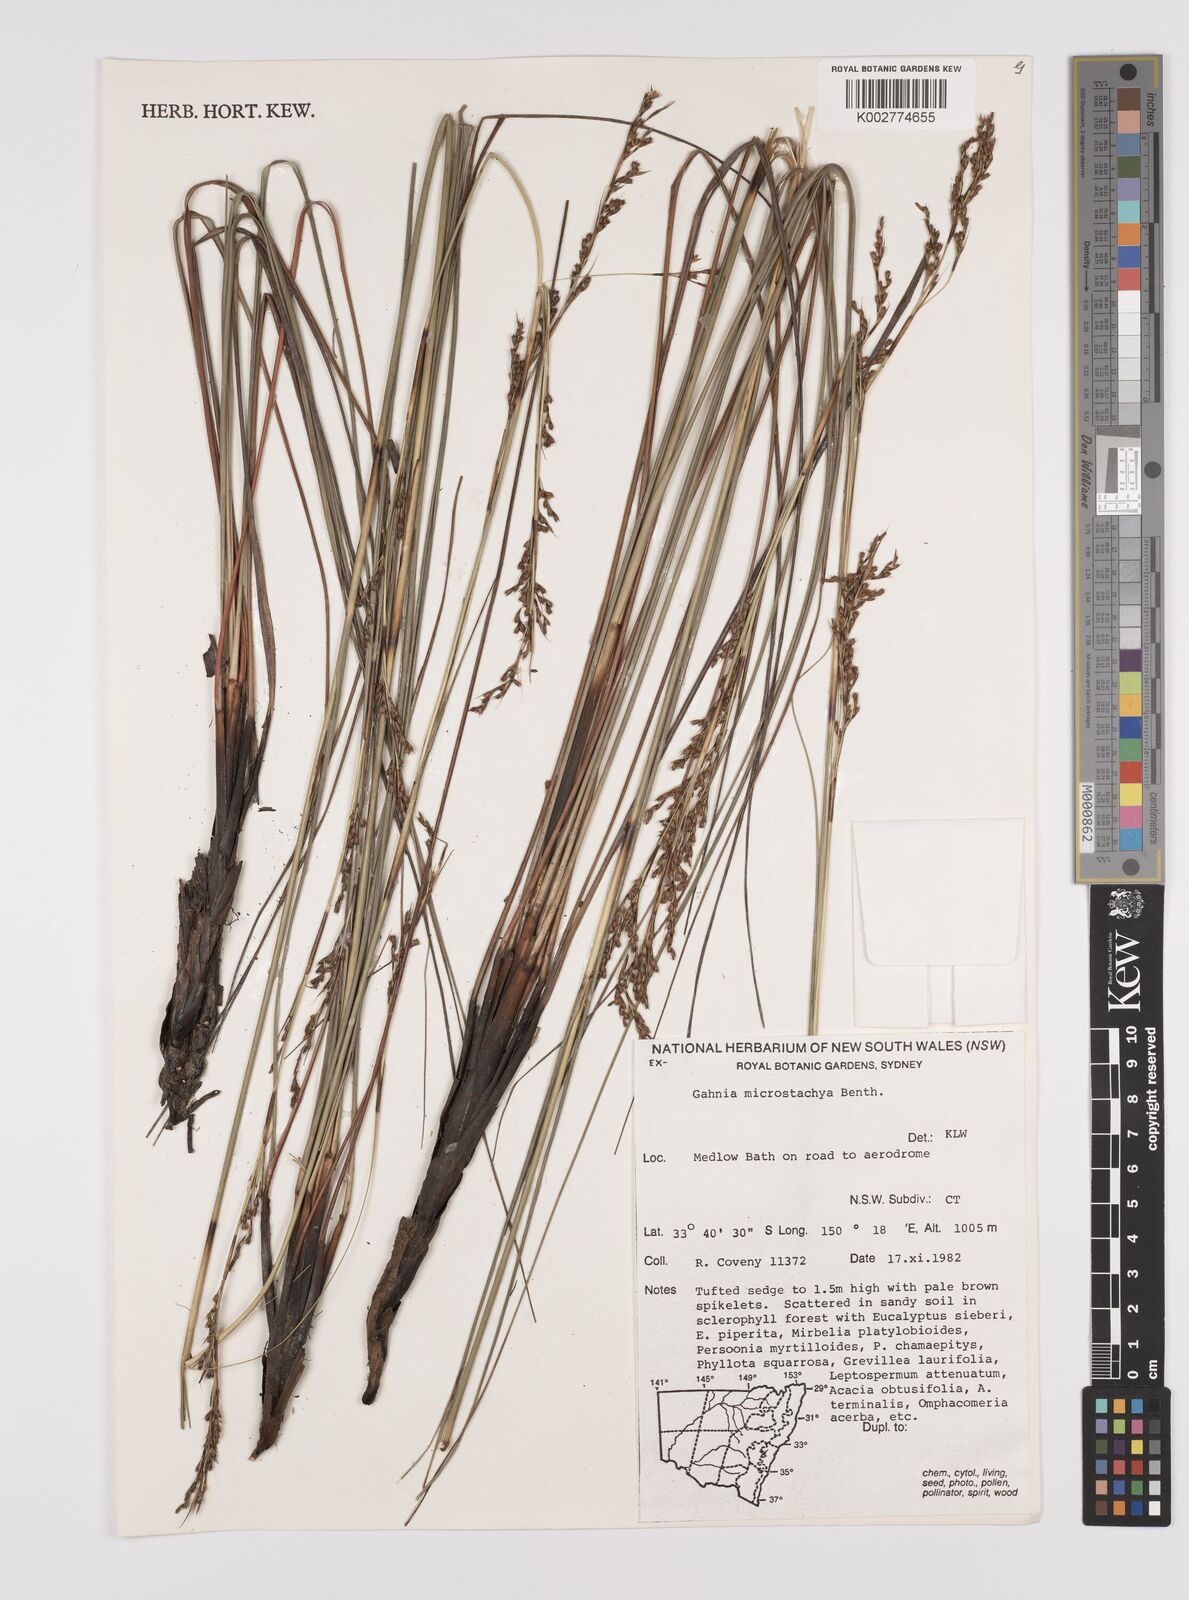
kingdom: Plantae
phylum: Tracheophyta
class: Liliopsida
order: Poales
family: Cyperaceae
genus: Gahnia
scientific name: Gahnia microstachya
